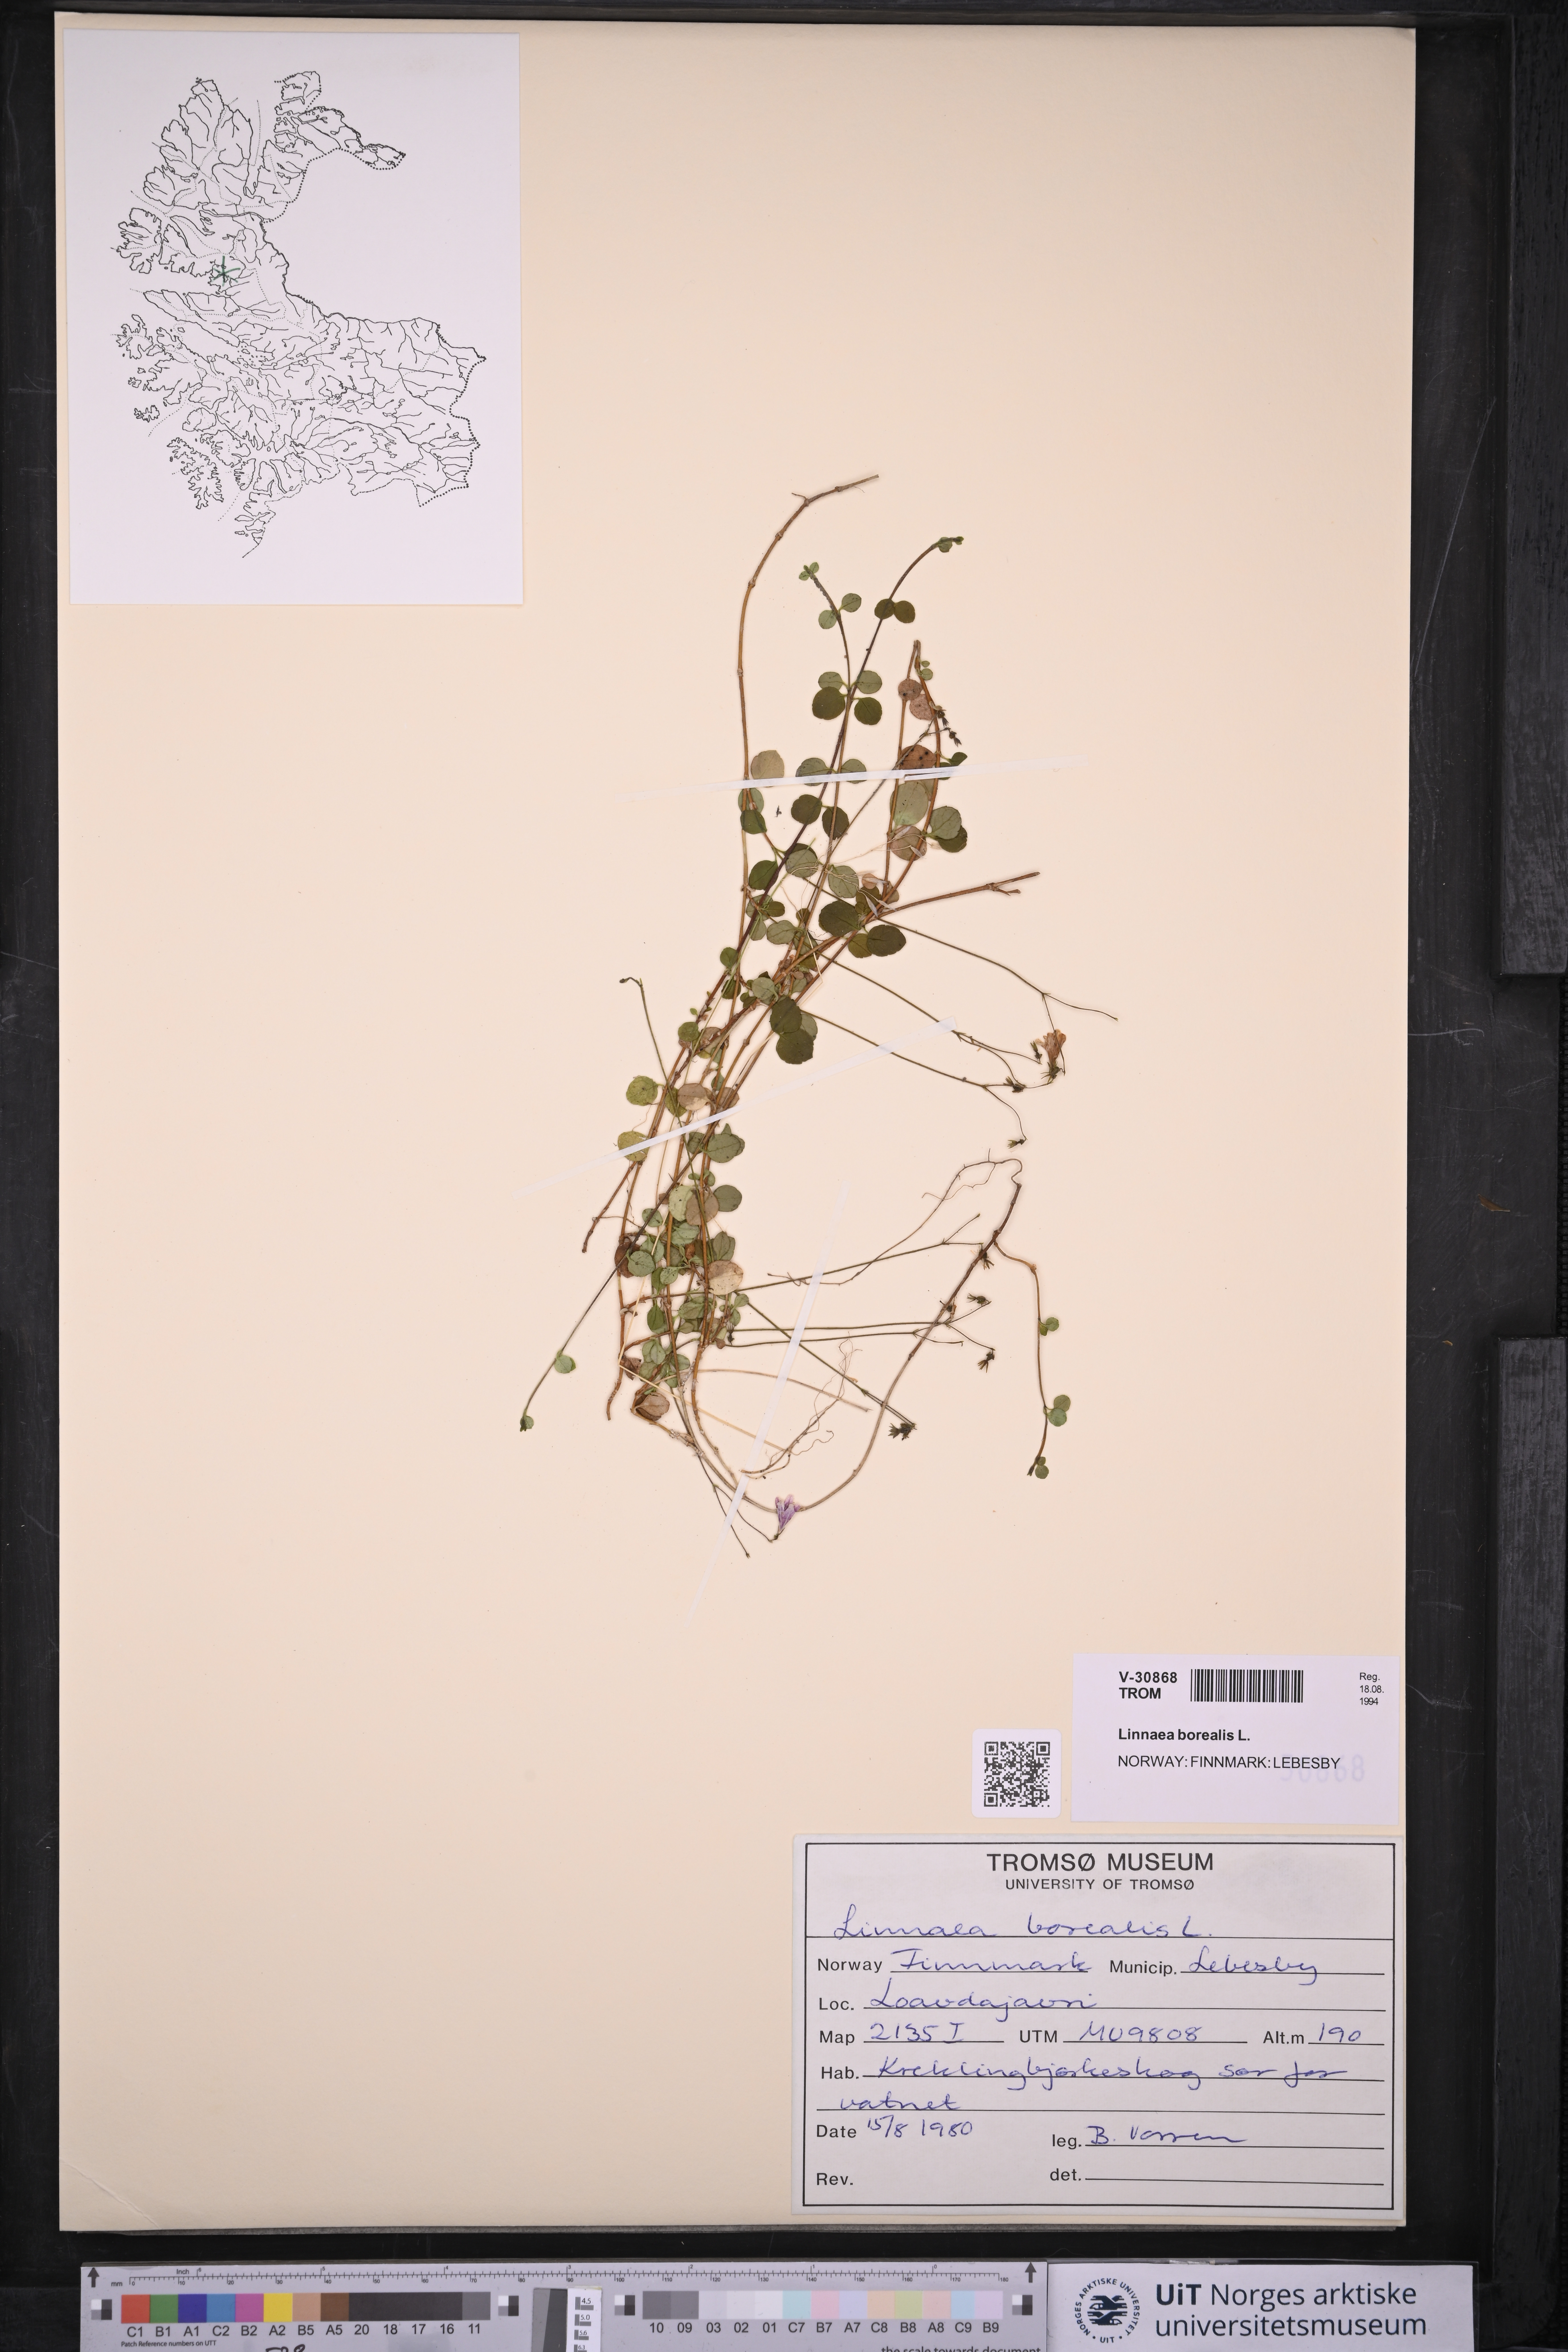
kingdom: Plantae
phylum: Tracheophyta
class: Magnoliopsida
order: Dipsacales
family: Caprifoliaceae
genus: Linnaea
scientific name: Linnaea borealis
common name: Twinflower
